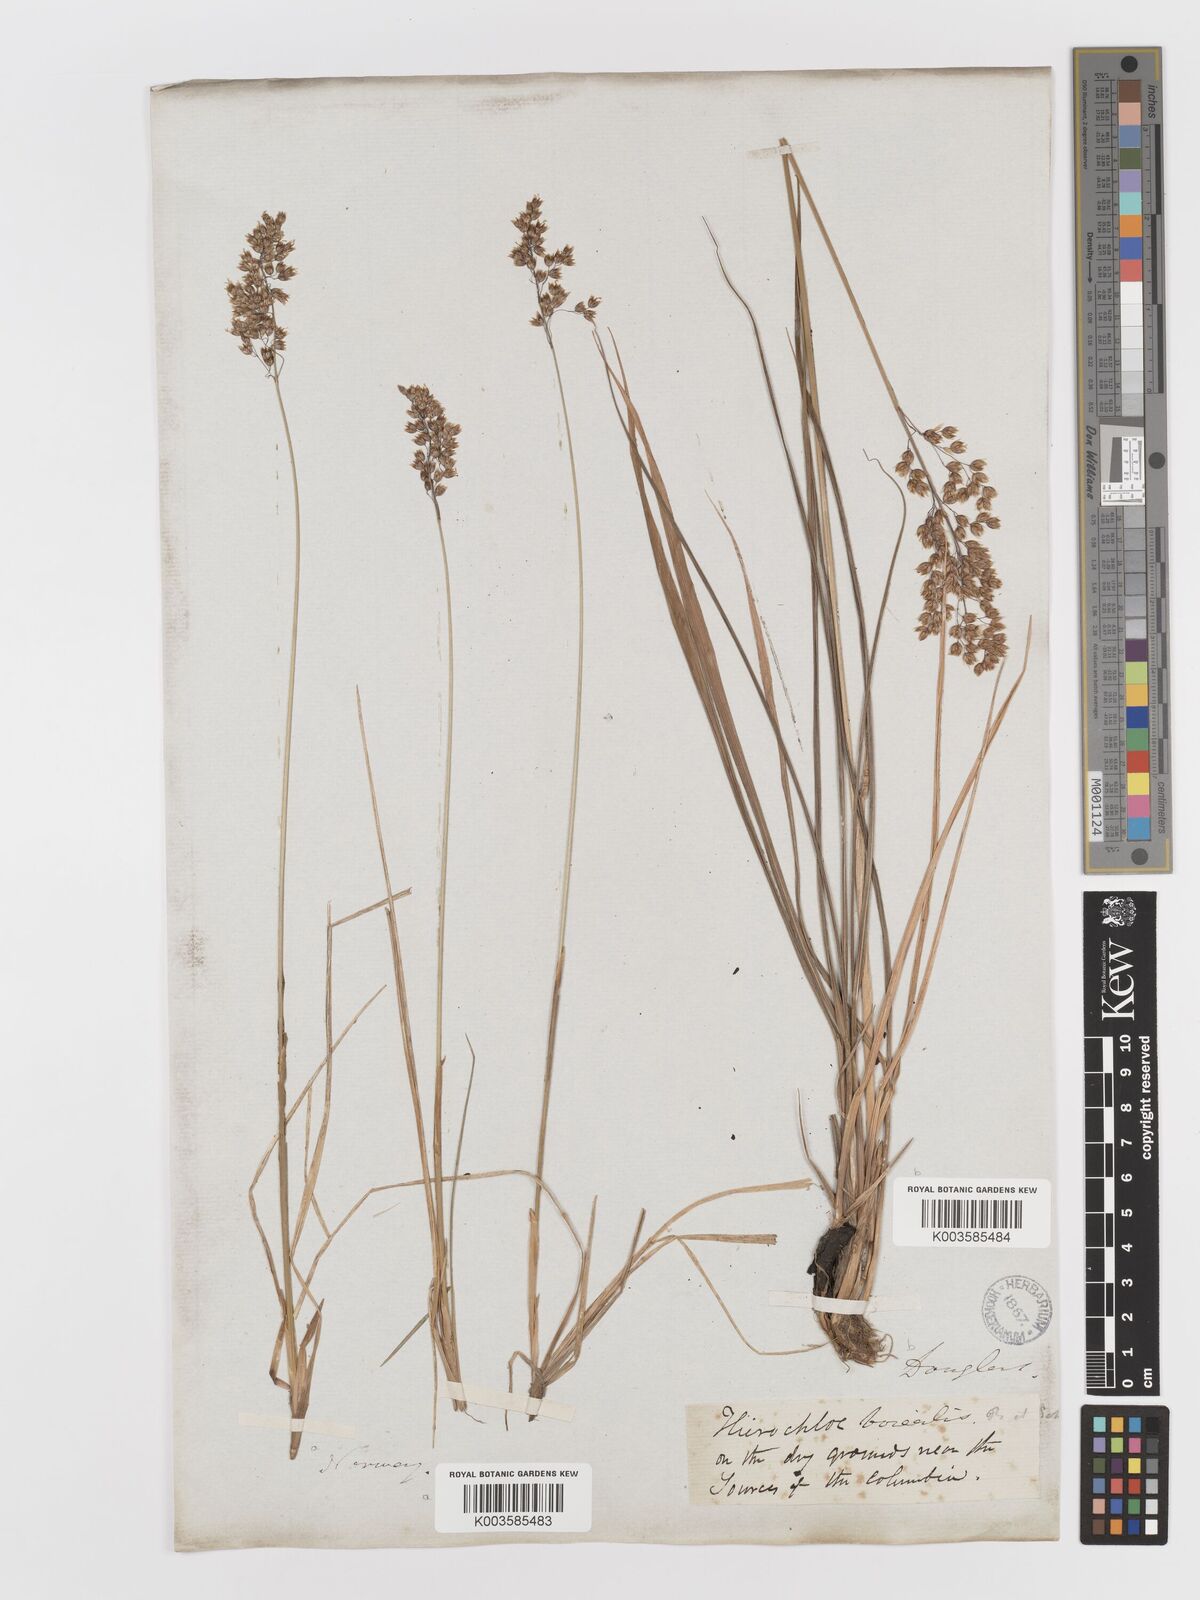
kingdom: Plantae
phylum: Tracheophyta
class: Liliopsida
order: Poales
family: Poaceae
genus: Anthoxanthum
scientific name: Anthoxanthum nitens
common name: Holy grass
